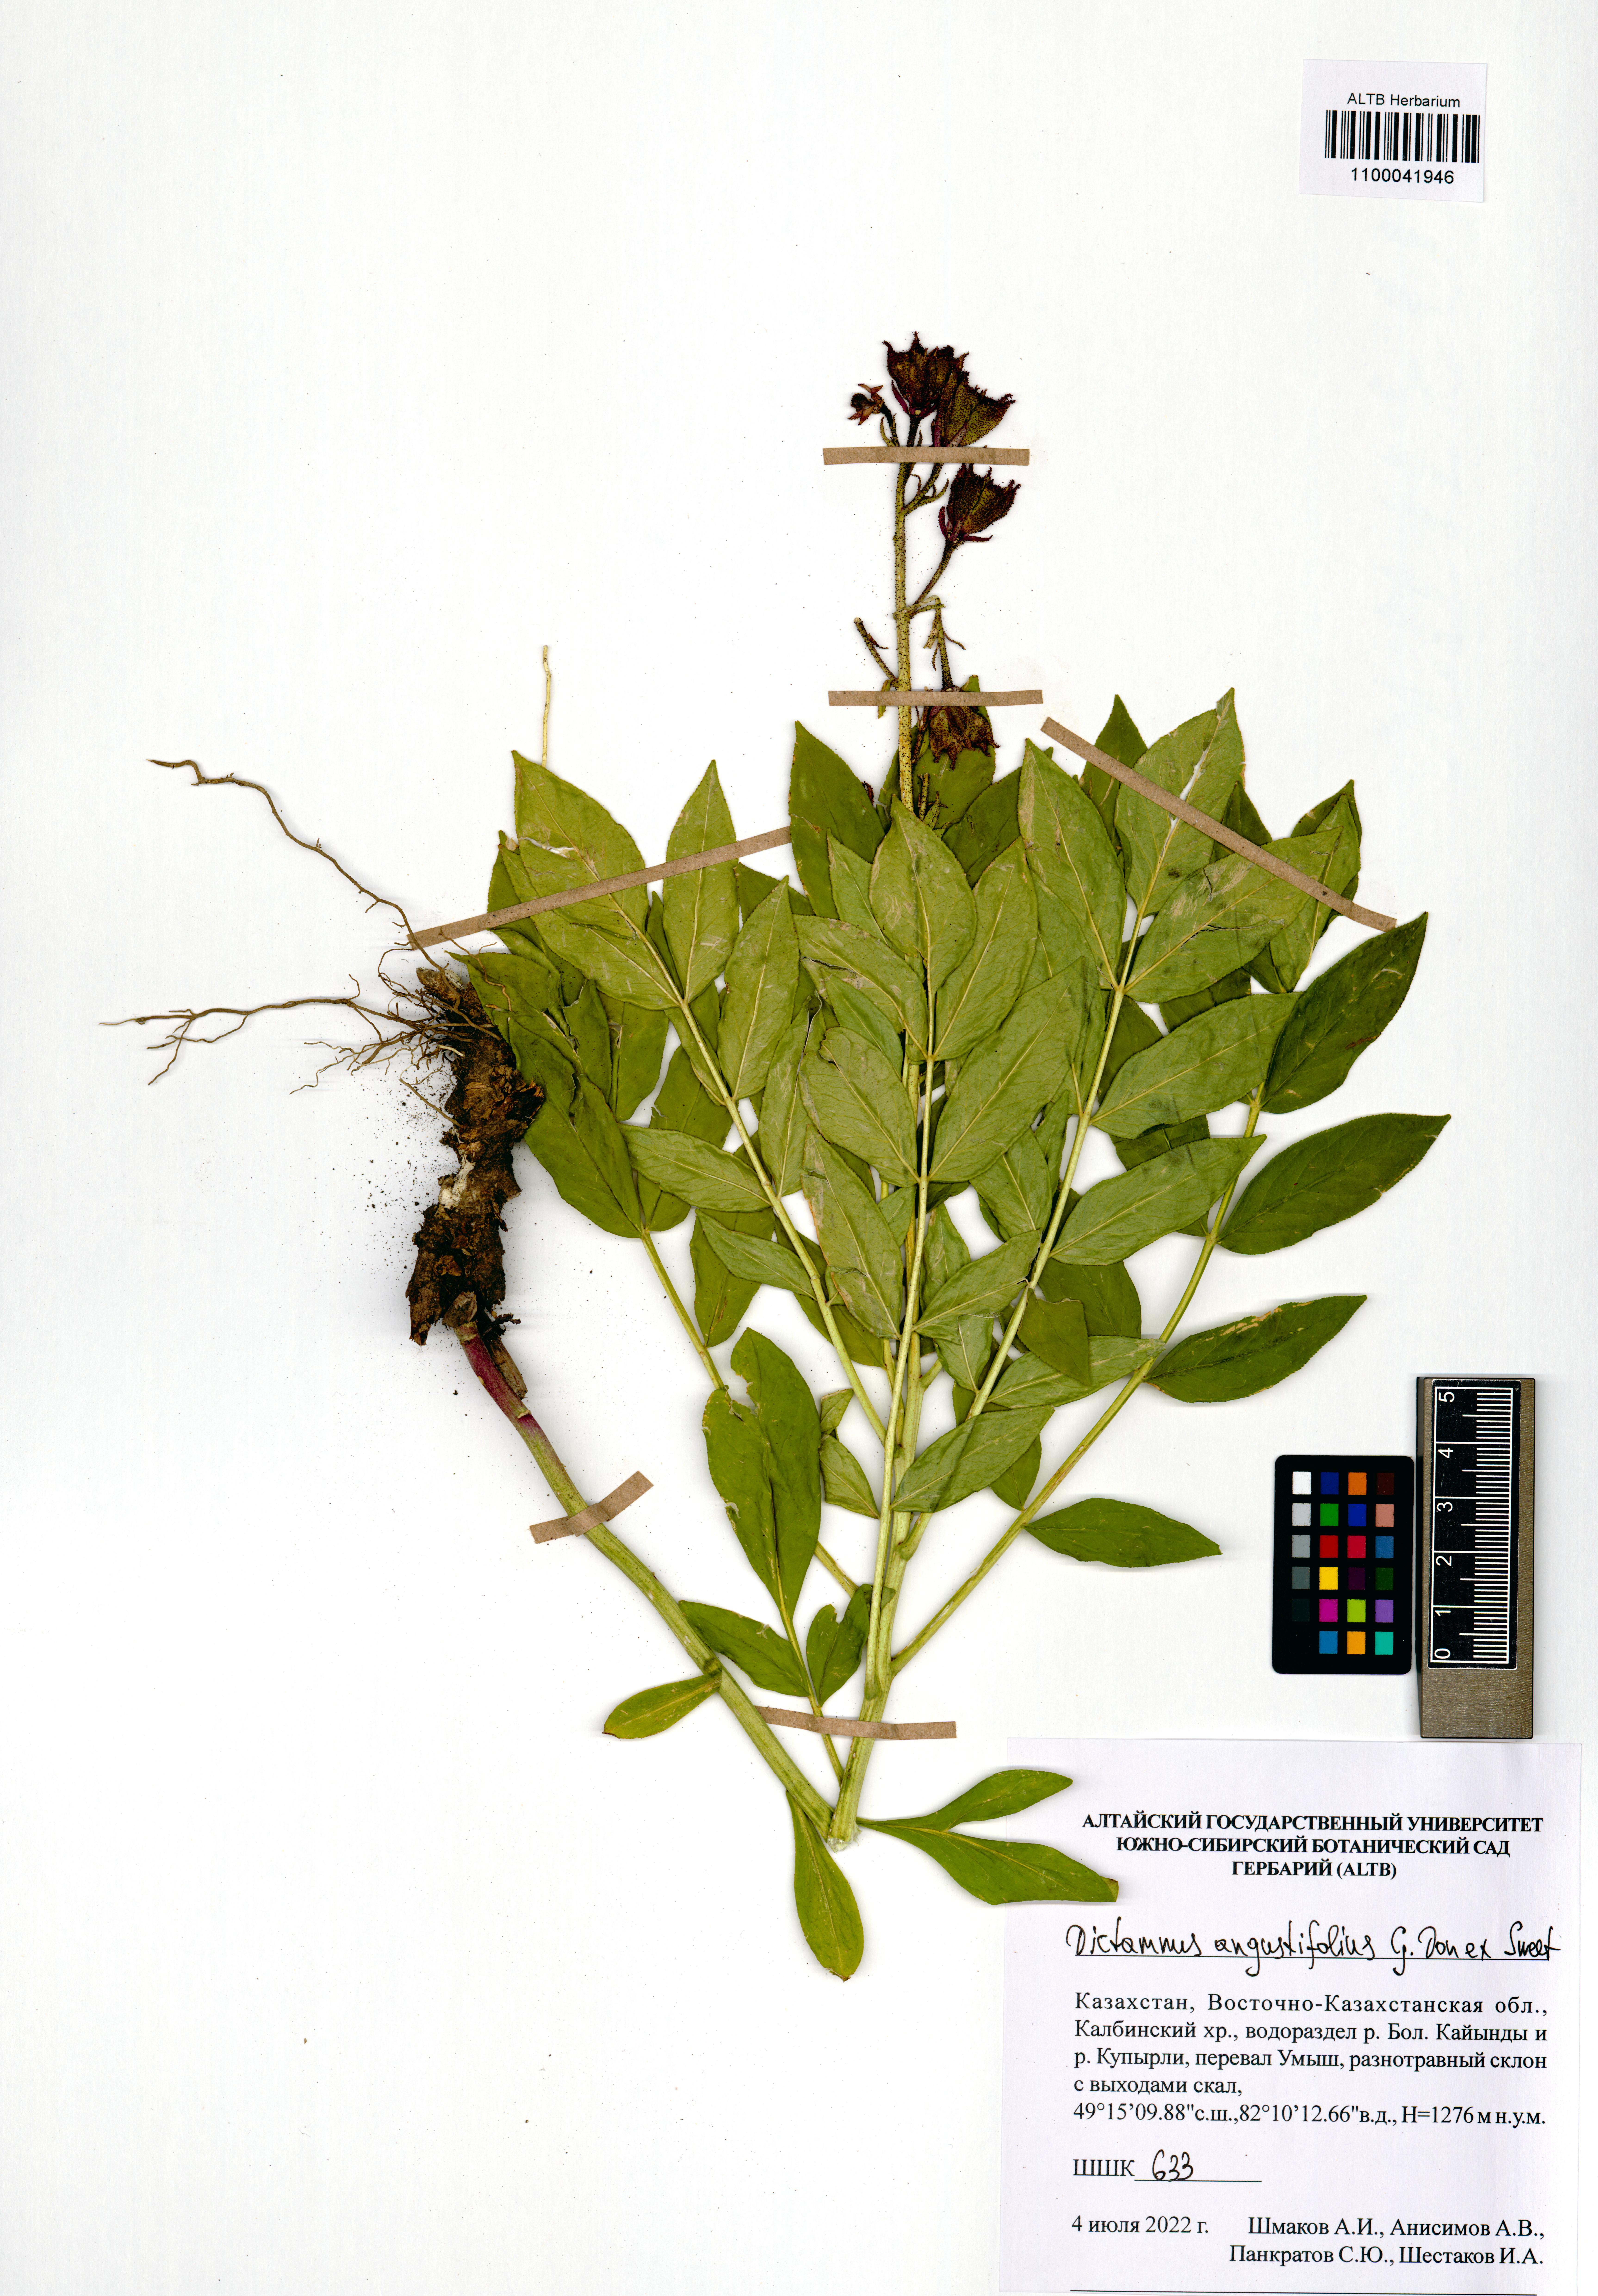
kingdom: Plantae
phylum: Tracheophyta
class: Magnoliopsida
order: Sapindales
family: Rutaceae
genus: Dictamnus
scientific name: Dictamnus albus
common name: Gasplant
